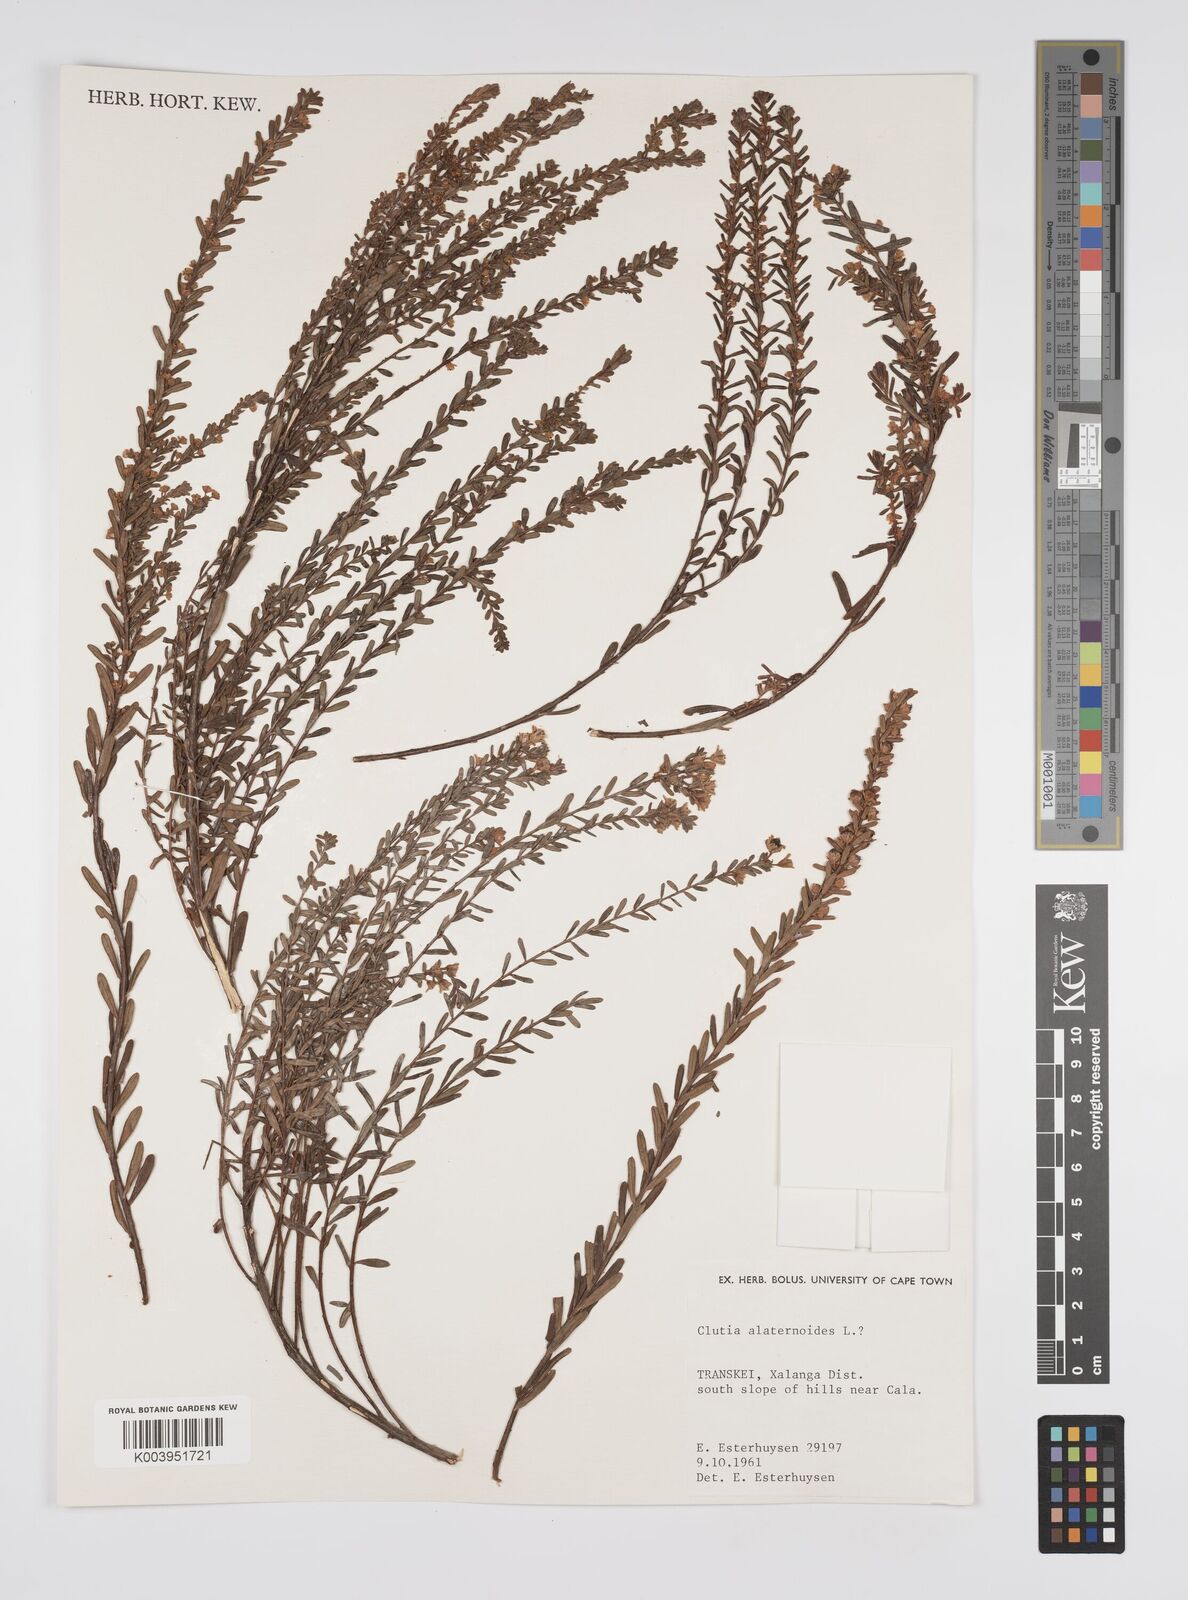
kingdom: Plantae
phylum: Tracheophyta
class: Magnoliopsida
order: Malpighiales
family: Peraceae
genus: Clutia
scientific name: Clutia alaternoides
